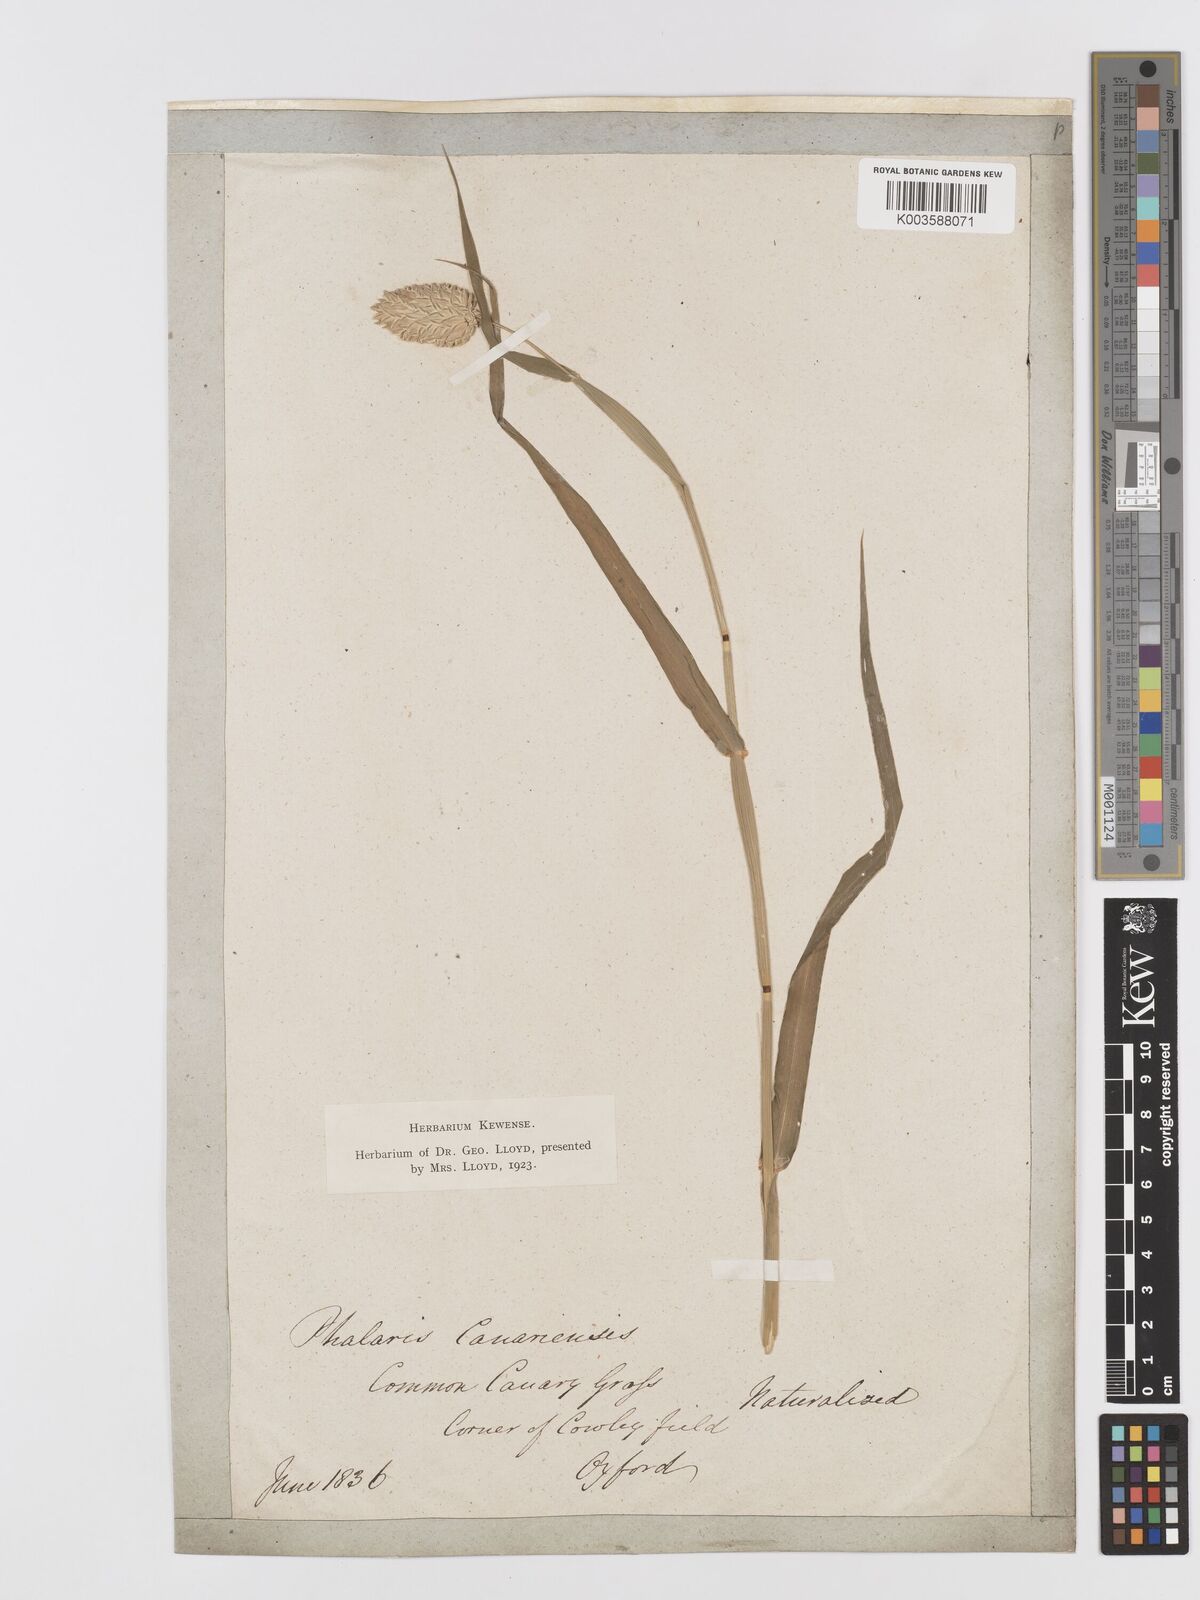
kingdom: Plantae
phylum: Tracheophyta
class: Liliopsida
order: Poales
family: Poaceae
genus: Phalaris
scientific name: Phalaris canariensis
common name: Annual canarygrass
